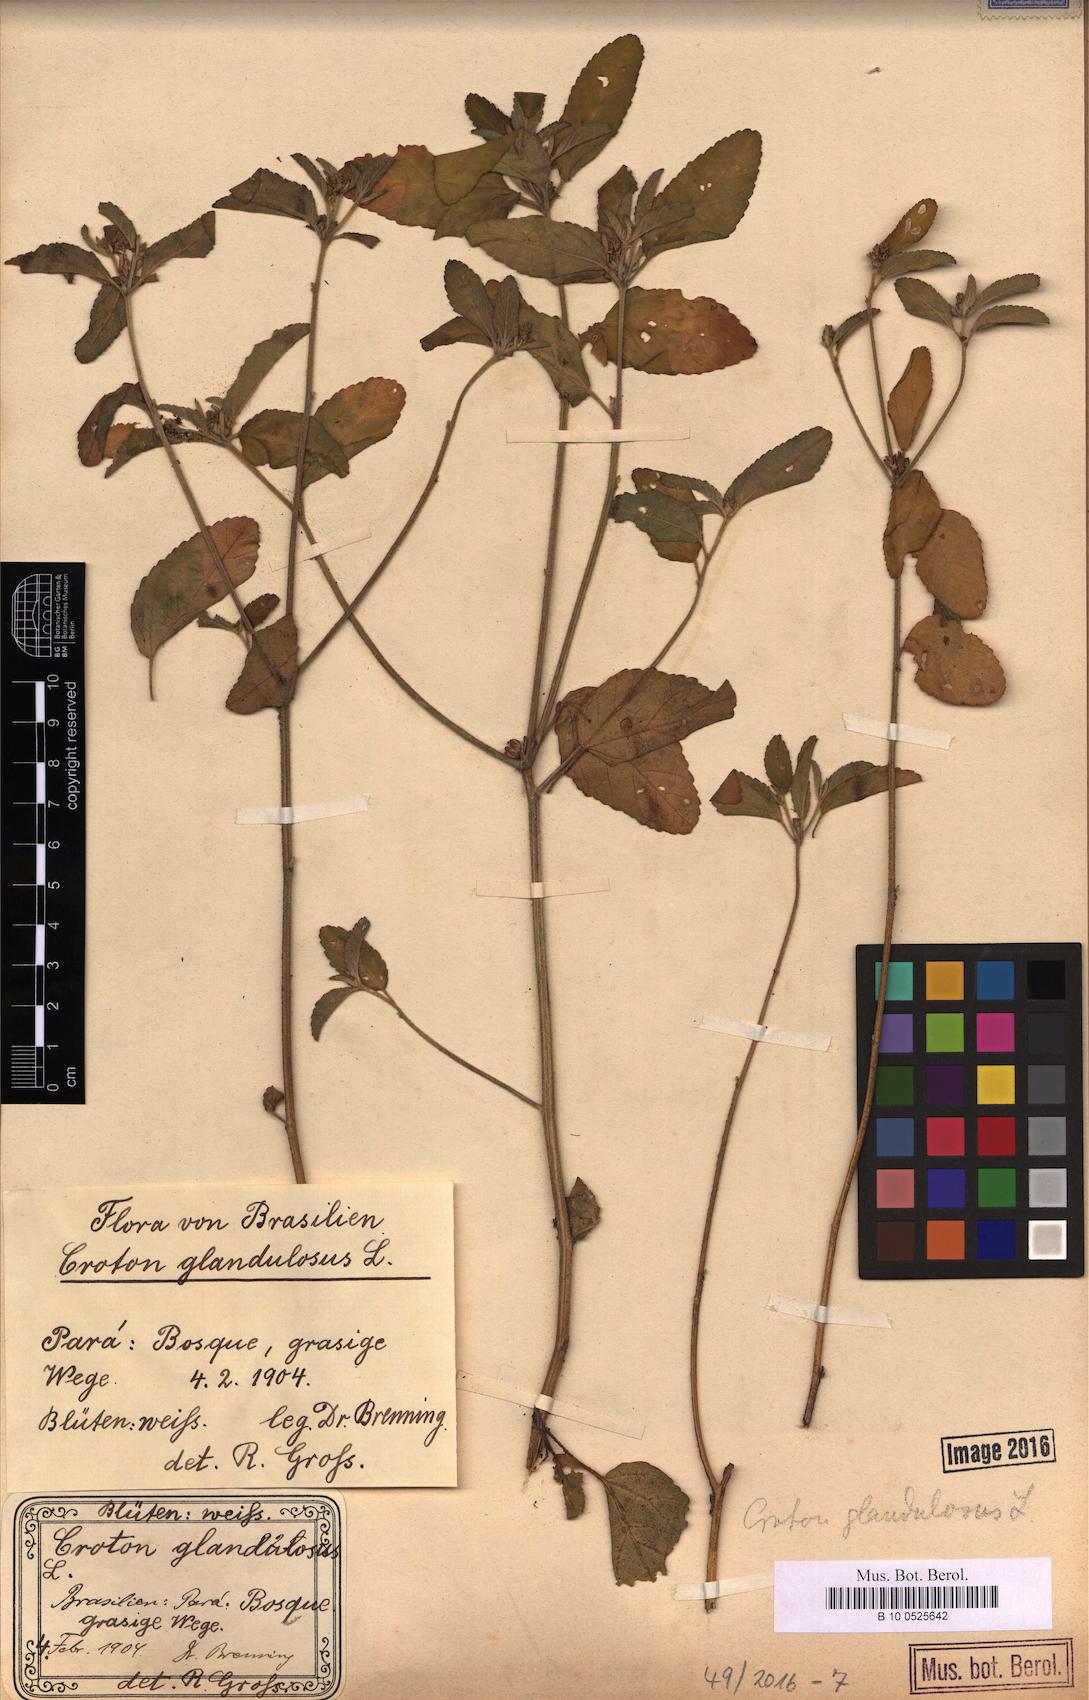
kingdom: Plantae
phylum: Tracheophyta
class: Magnoliopsida
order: Malpighiales
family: Euphorbiaceae
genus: Croton
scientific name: Croton glandulosus
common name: Tropic croton
